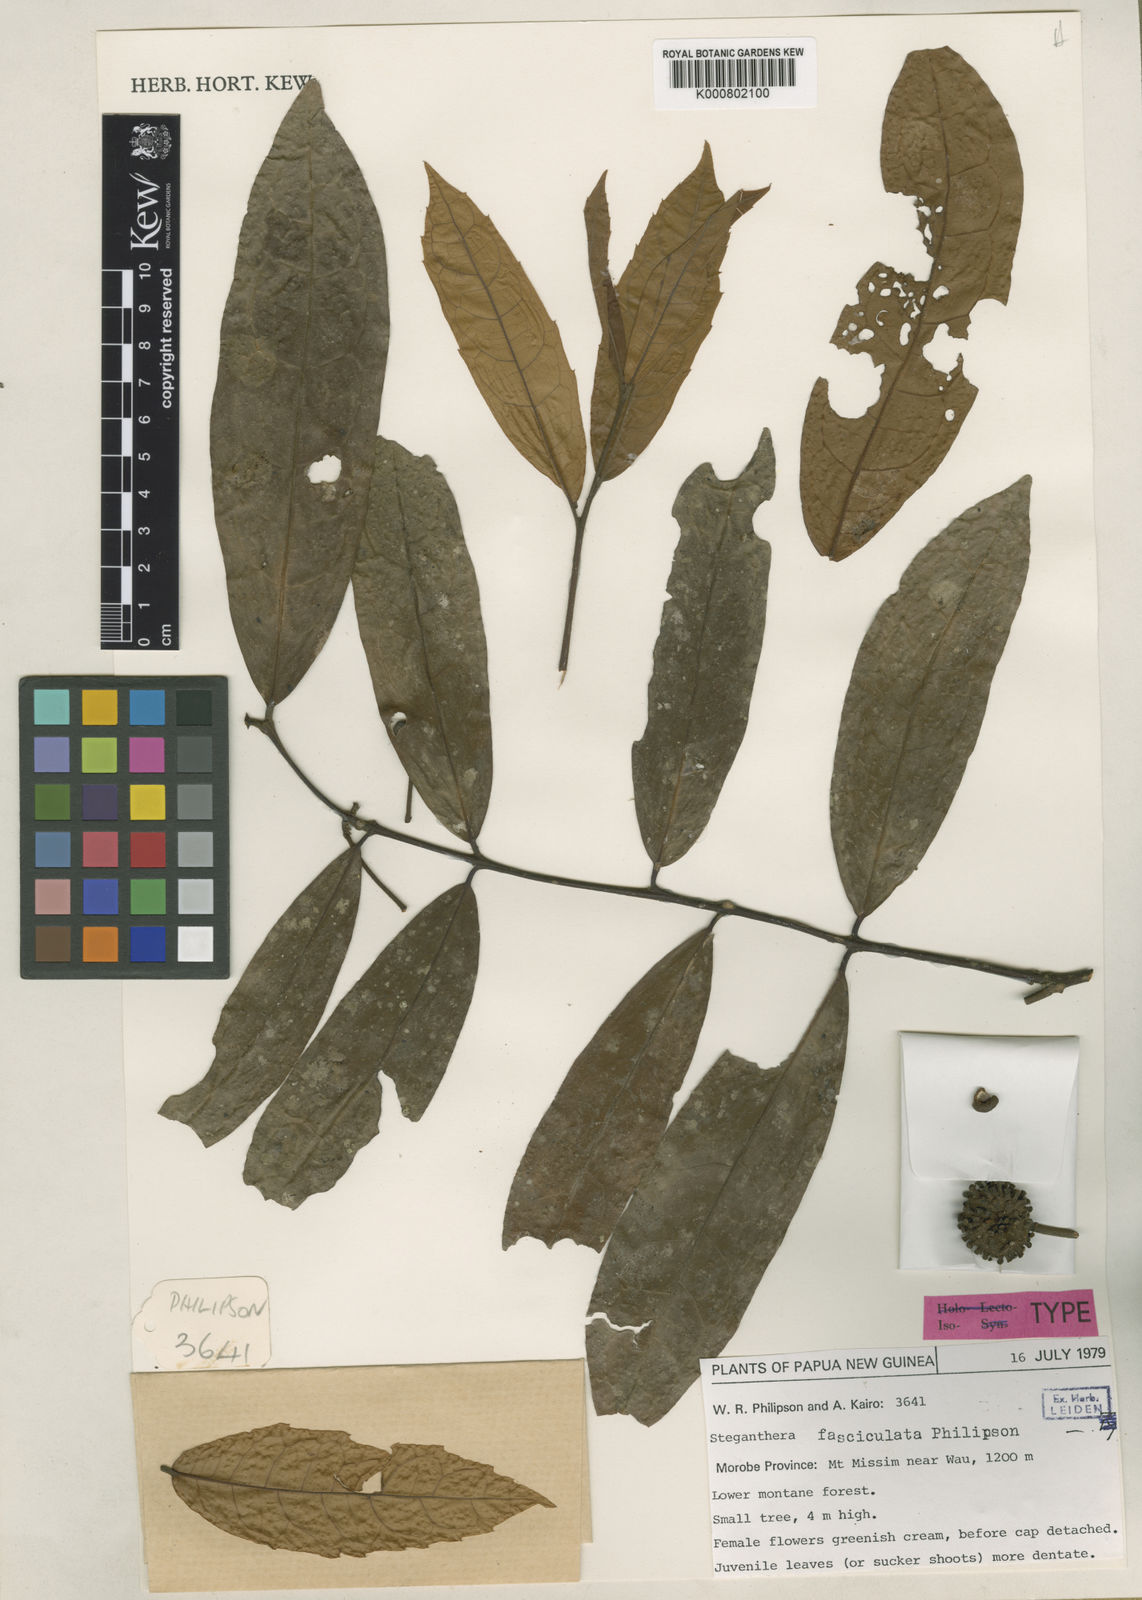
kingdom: Plantae
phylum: Tracheophyta
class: Magnoliopsida
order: Laurales
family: Monimiaceae
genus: Steganthera
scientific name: Steganthera fasciculata
